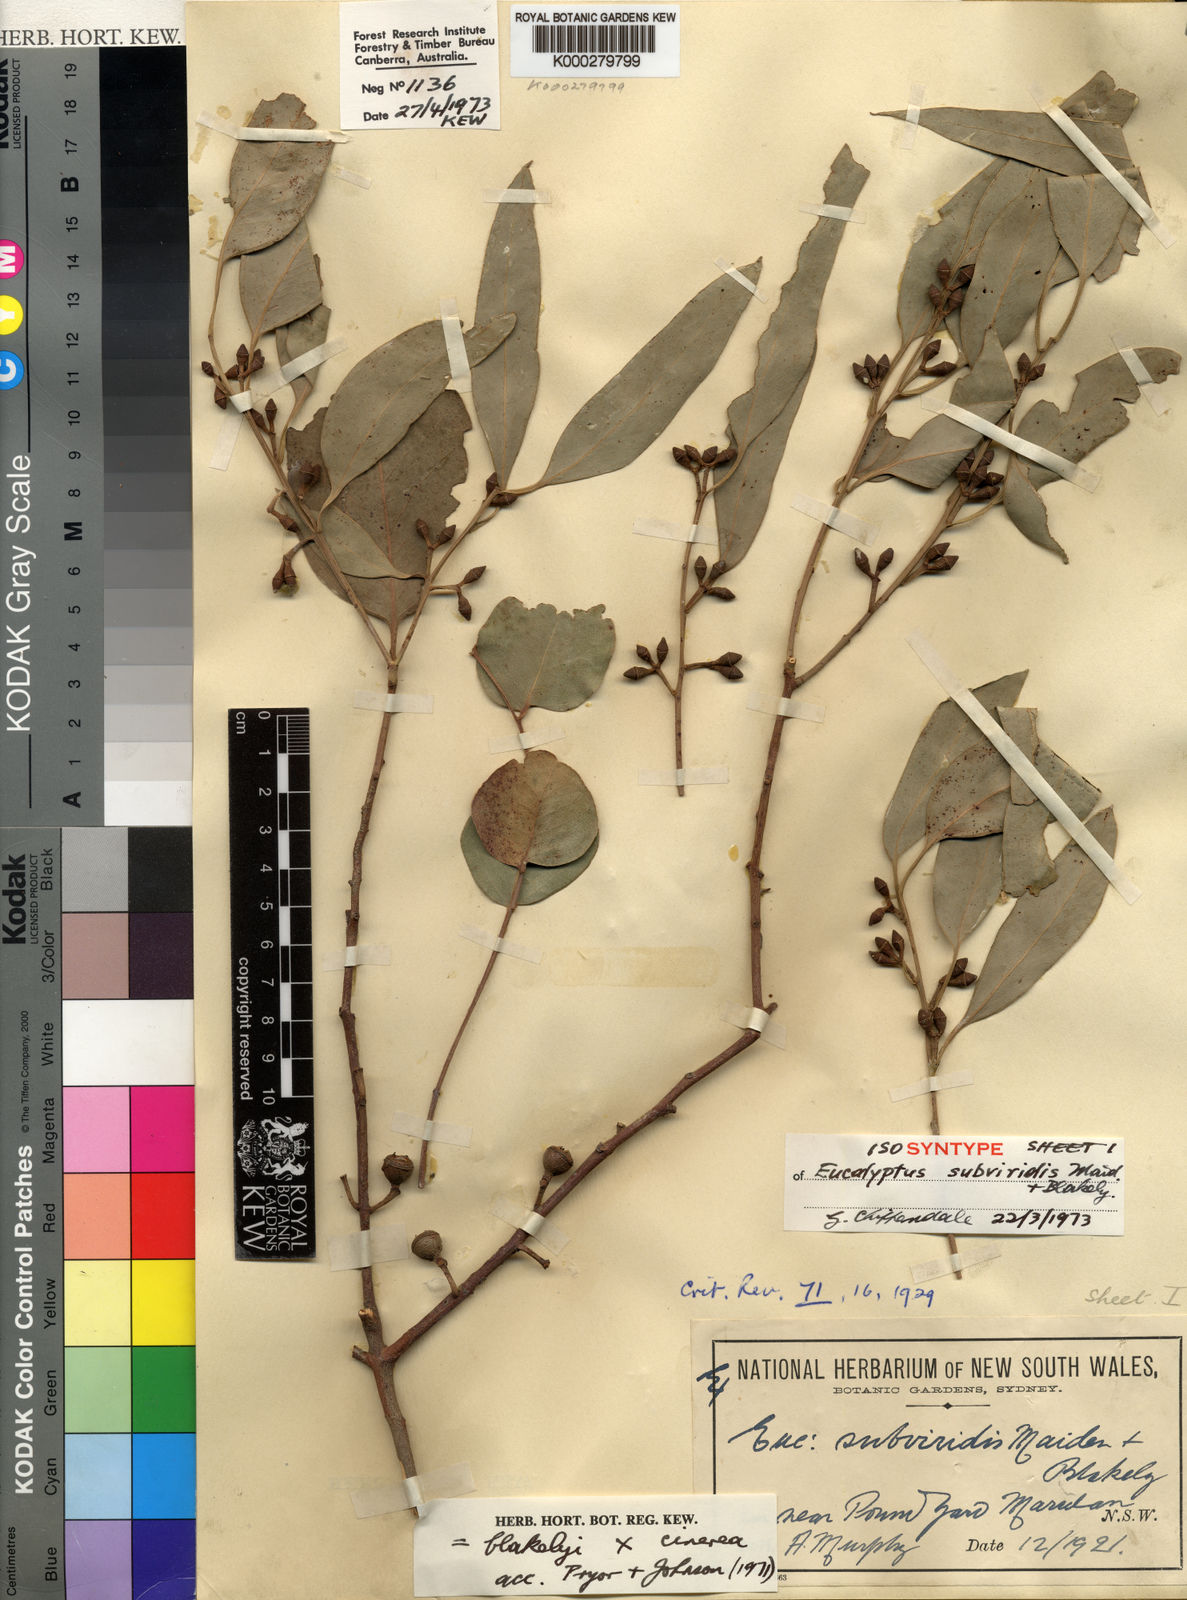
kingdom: Plantae
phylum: Tracheophyta
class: Magnoliopsida
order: Myrtales
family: Myrtaceae
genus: Eucalyptus
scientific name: Eucalyptus subviridis
